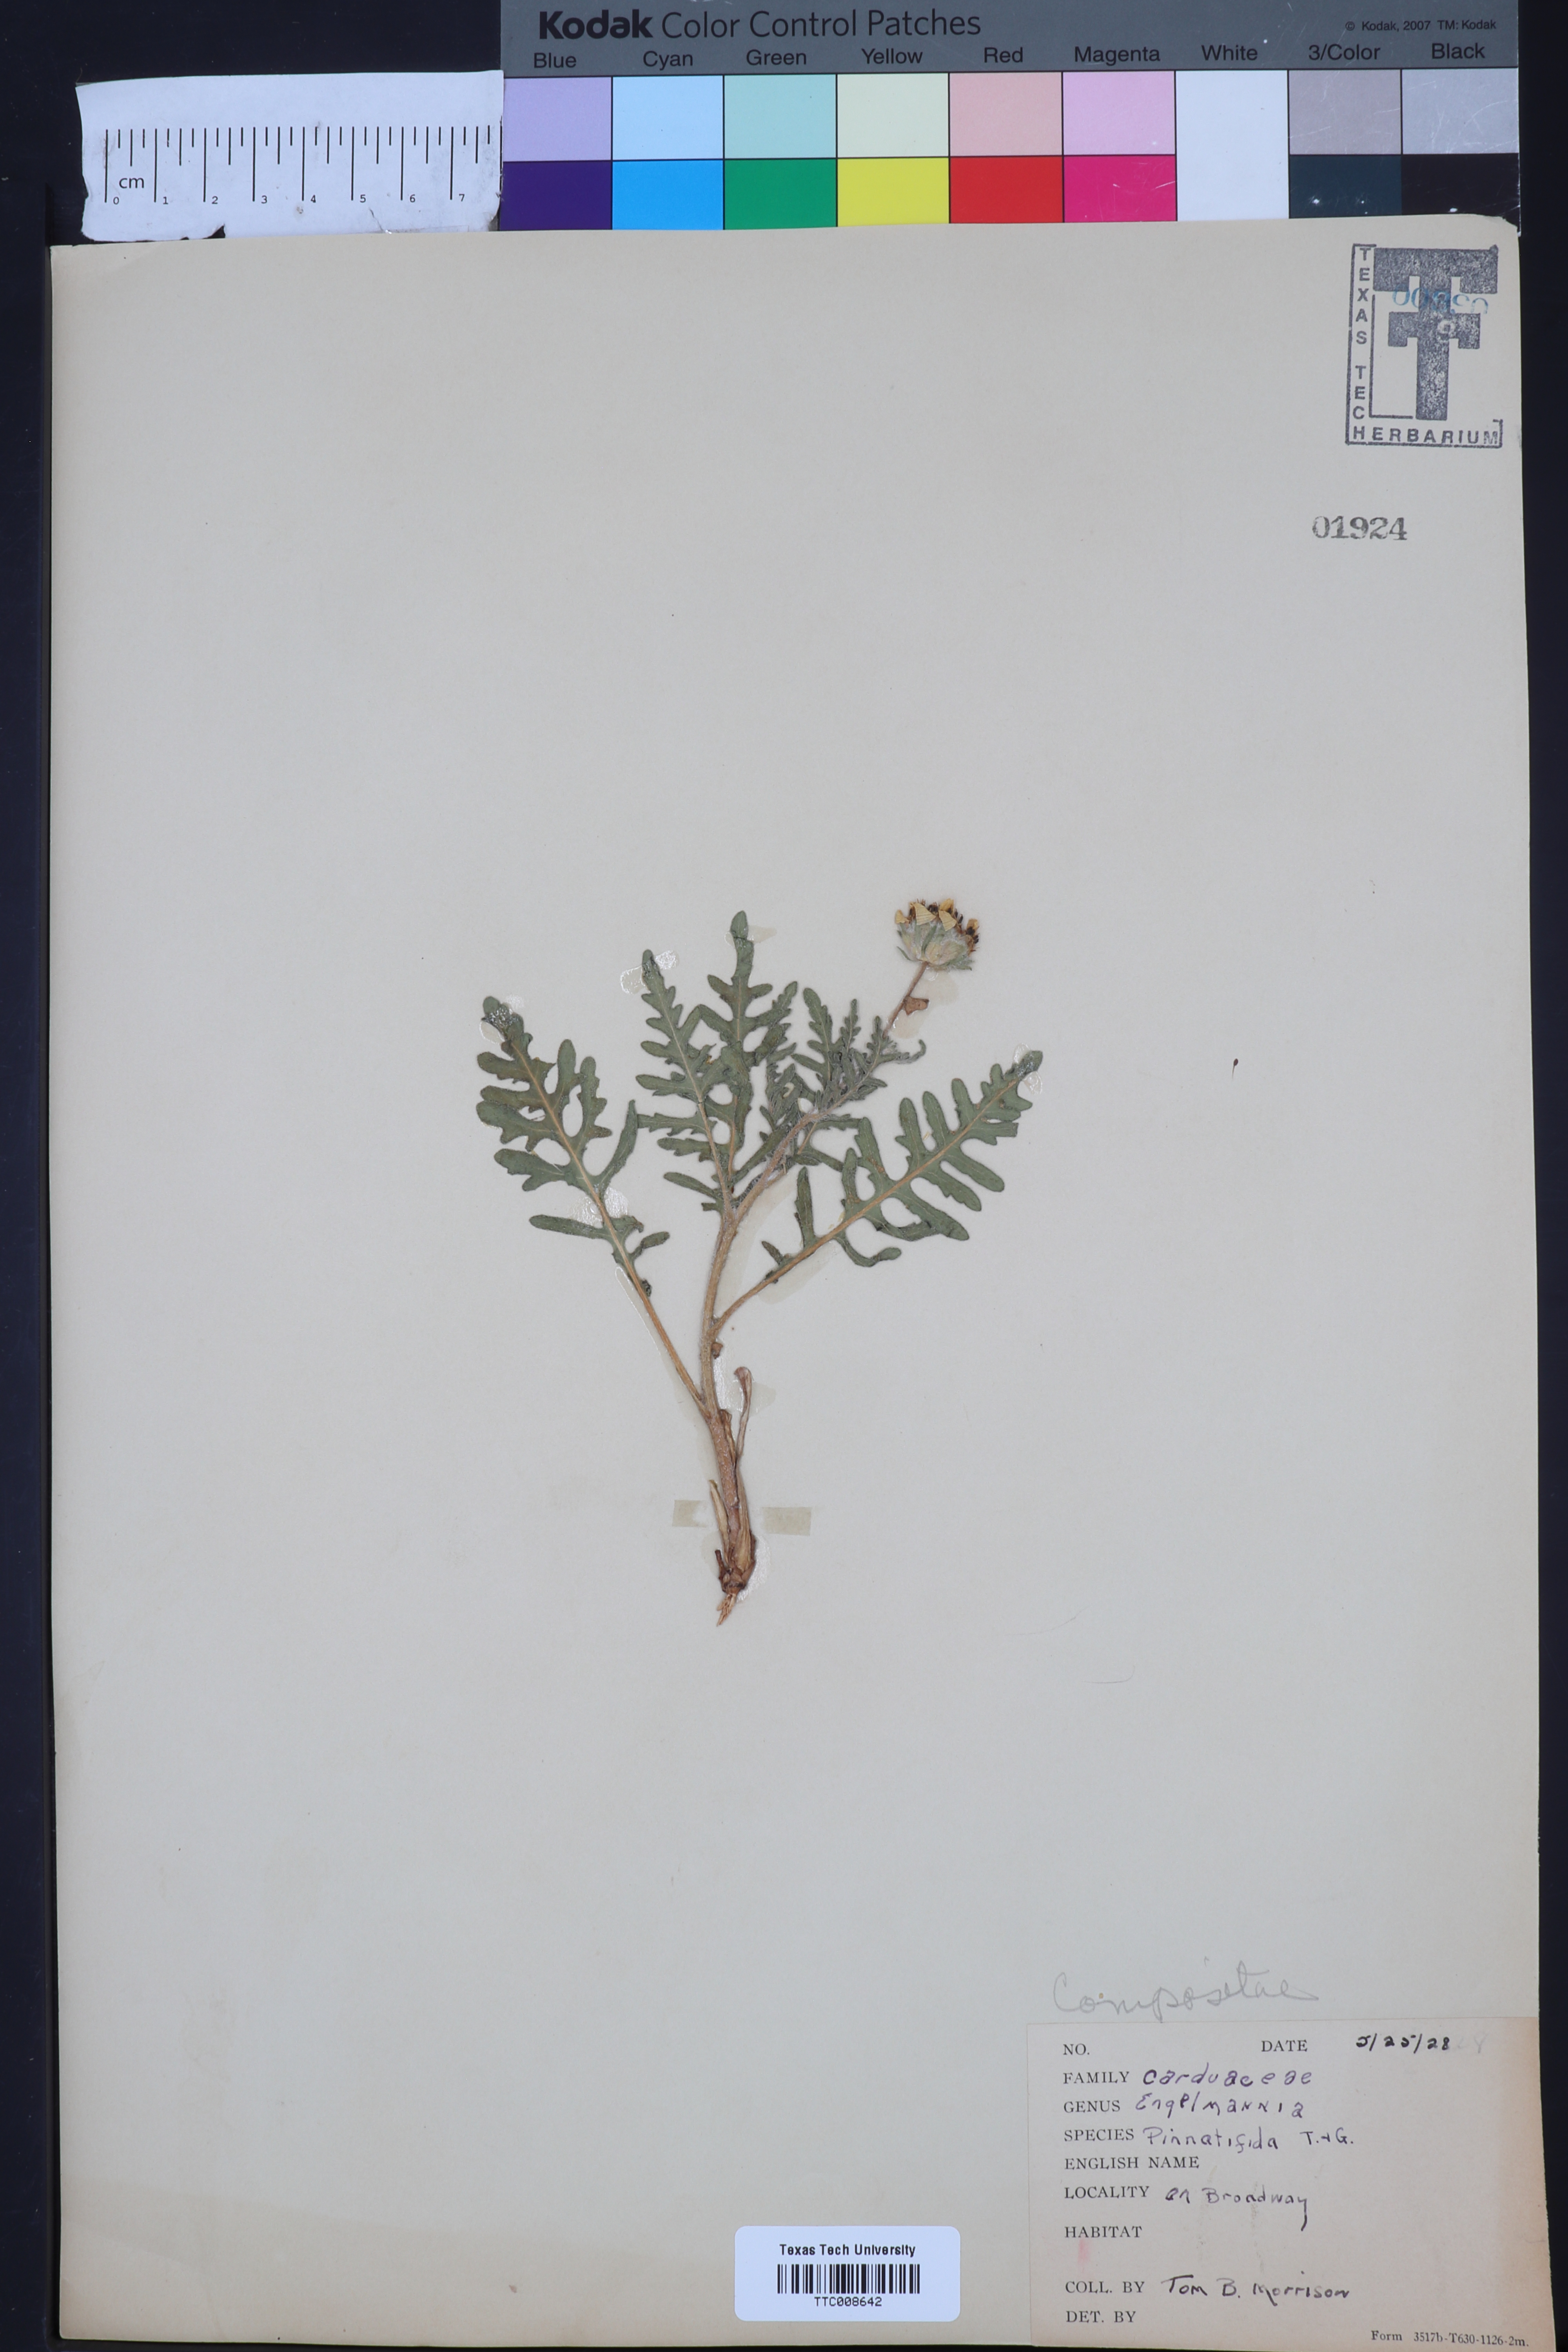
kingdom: Plantae
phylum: Tracheophyta
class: Magnoliopsida
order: Asterales
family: Asteraceae
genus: Engelmannia
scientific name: Engelmannia peristenia
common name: Engelmann's daisy
